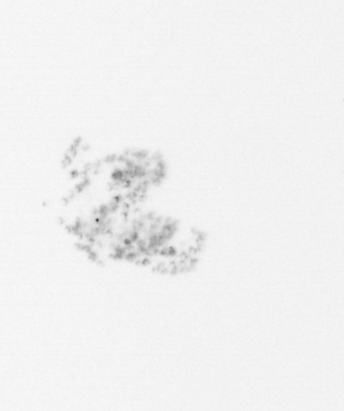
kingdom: Chromista
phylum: Ochrophyta
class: Bacillariophyceae
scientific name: Bacillariophyceae
